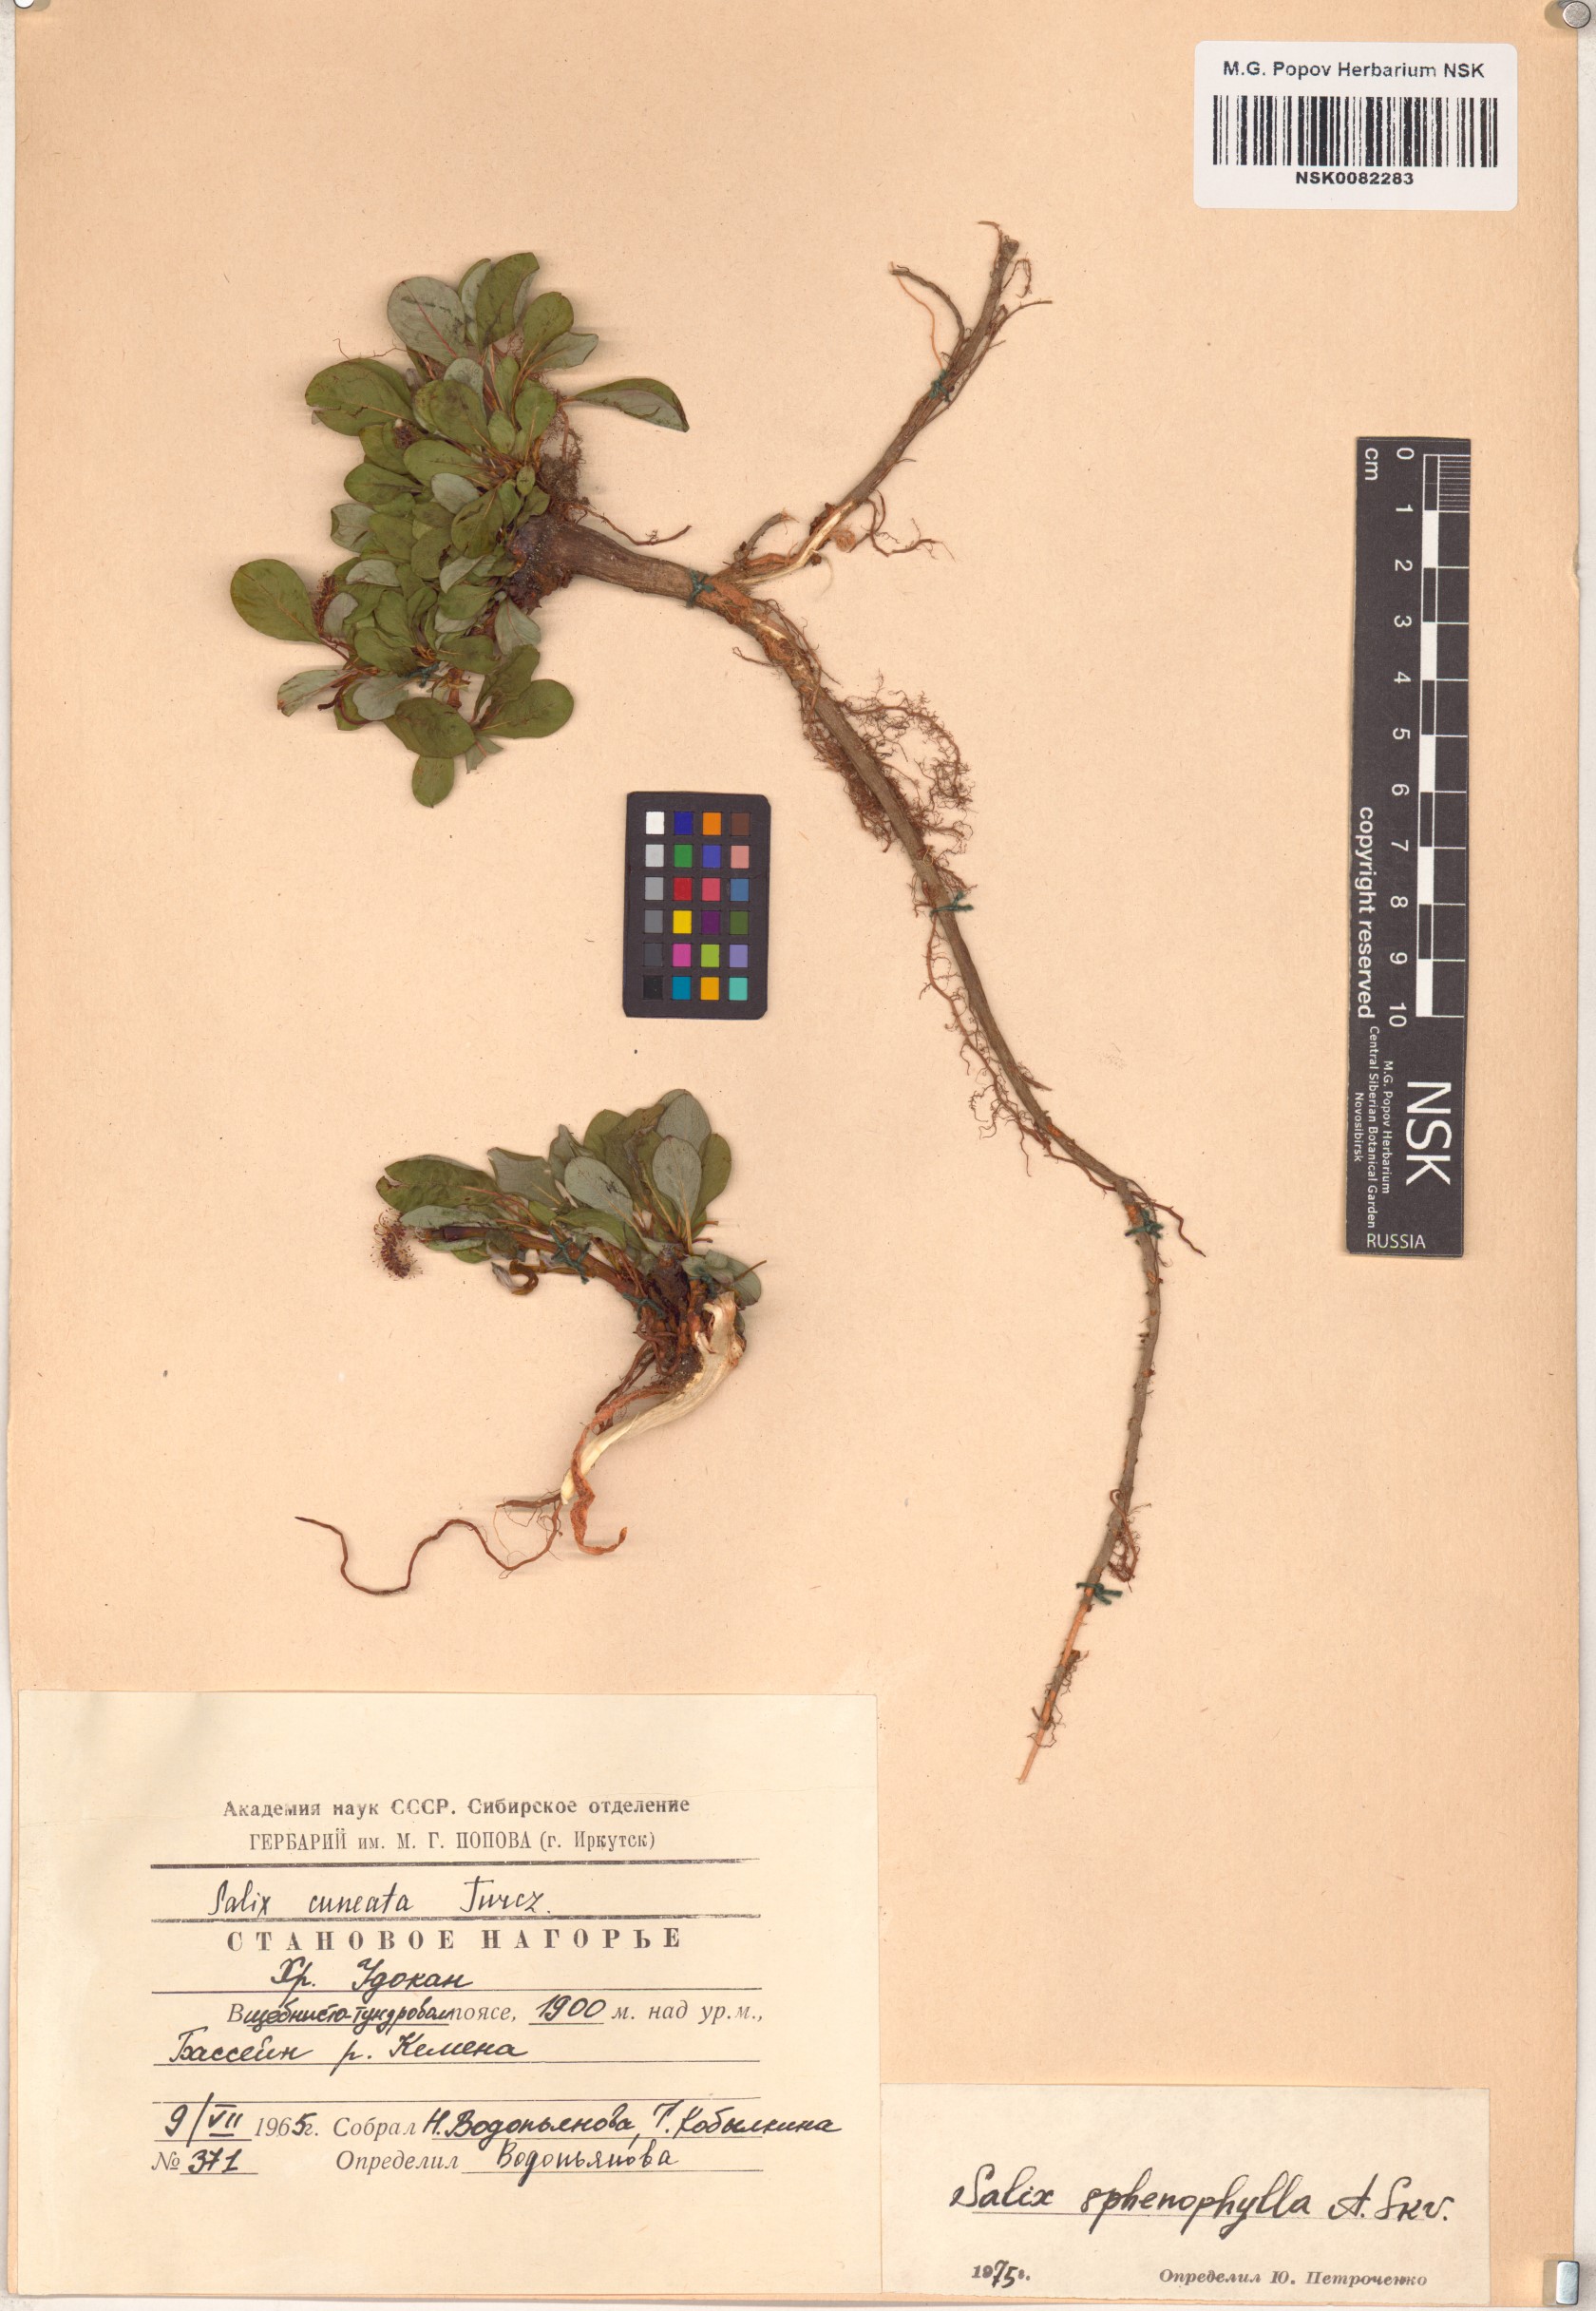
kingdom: Plantae
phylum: Tracheophyta
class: Magnoliopsida
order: Malpighiales
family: Salicaceae
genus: Salix
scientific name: Salix sphenophylla
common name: Wedge-leaved willow
